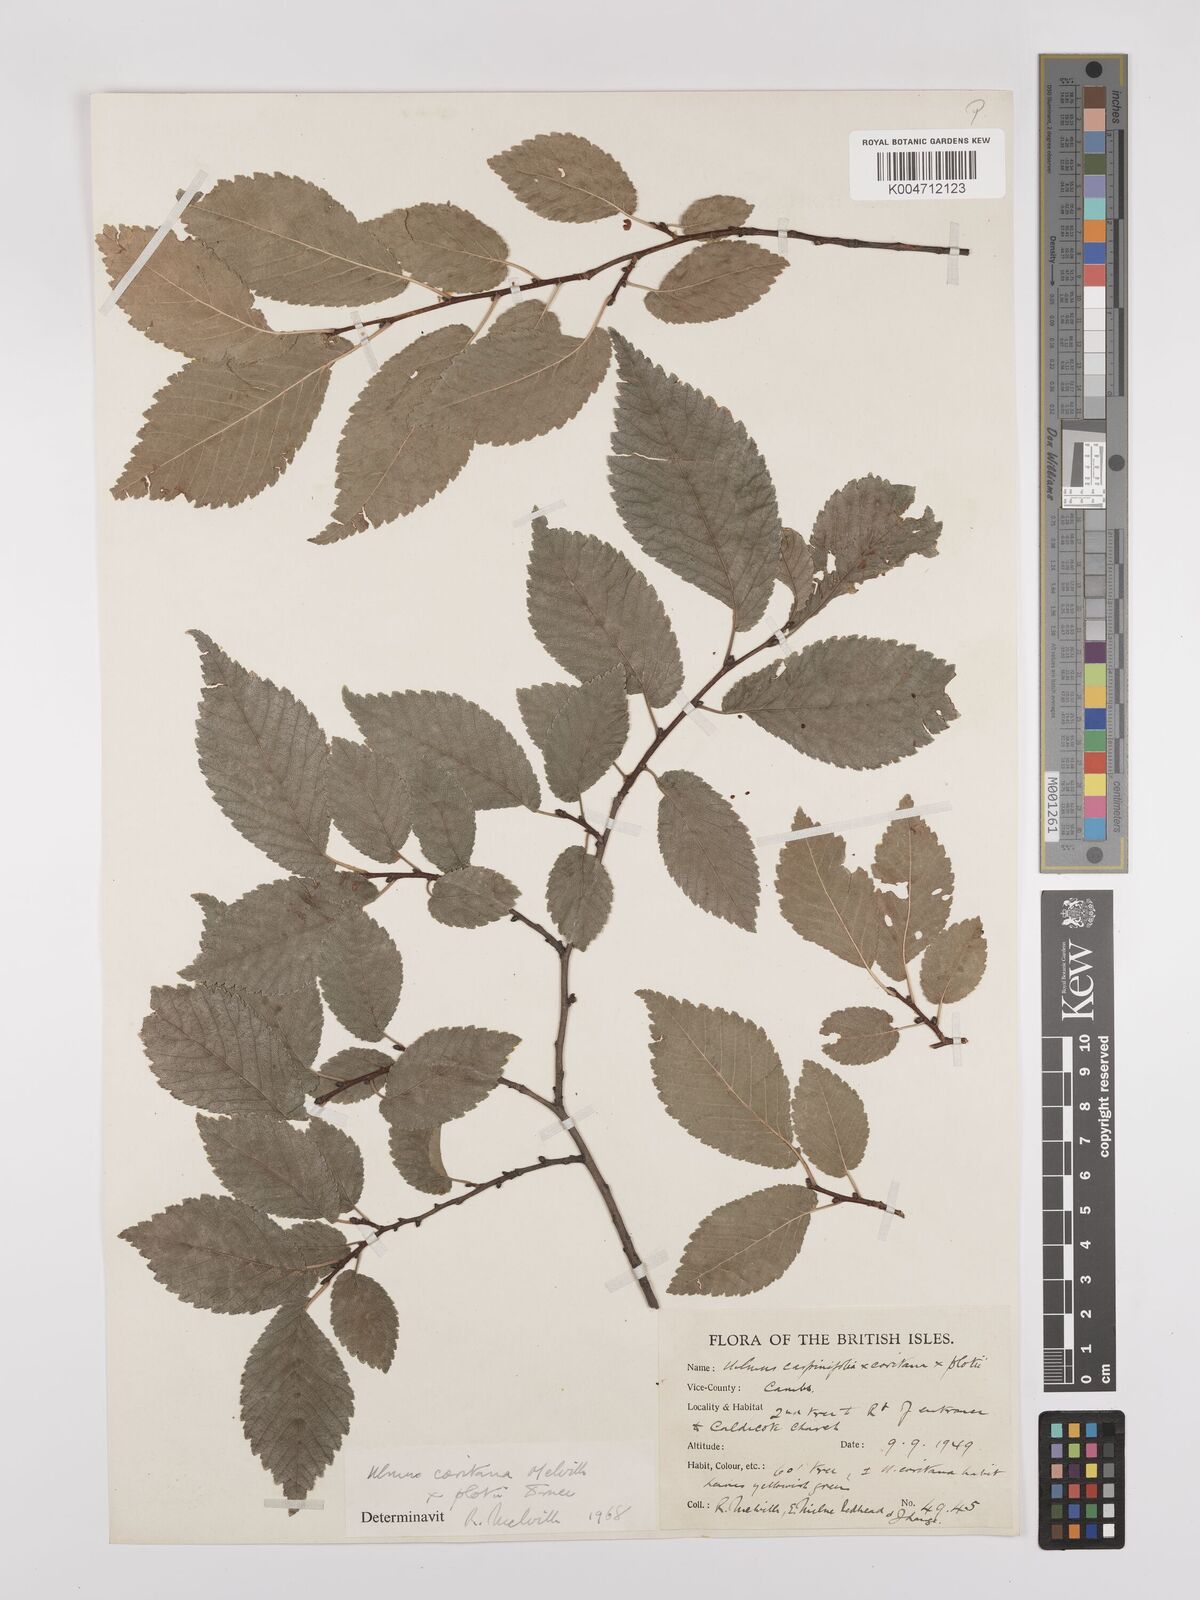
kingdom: Plantae
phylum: Tracheophyta
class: Magnoliopsida
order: Rosales
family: Ulmaceae
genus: Ulmus
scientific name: Ulmus minor
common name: Small-leaved elm
